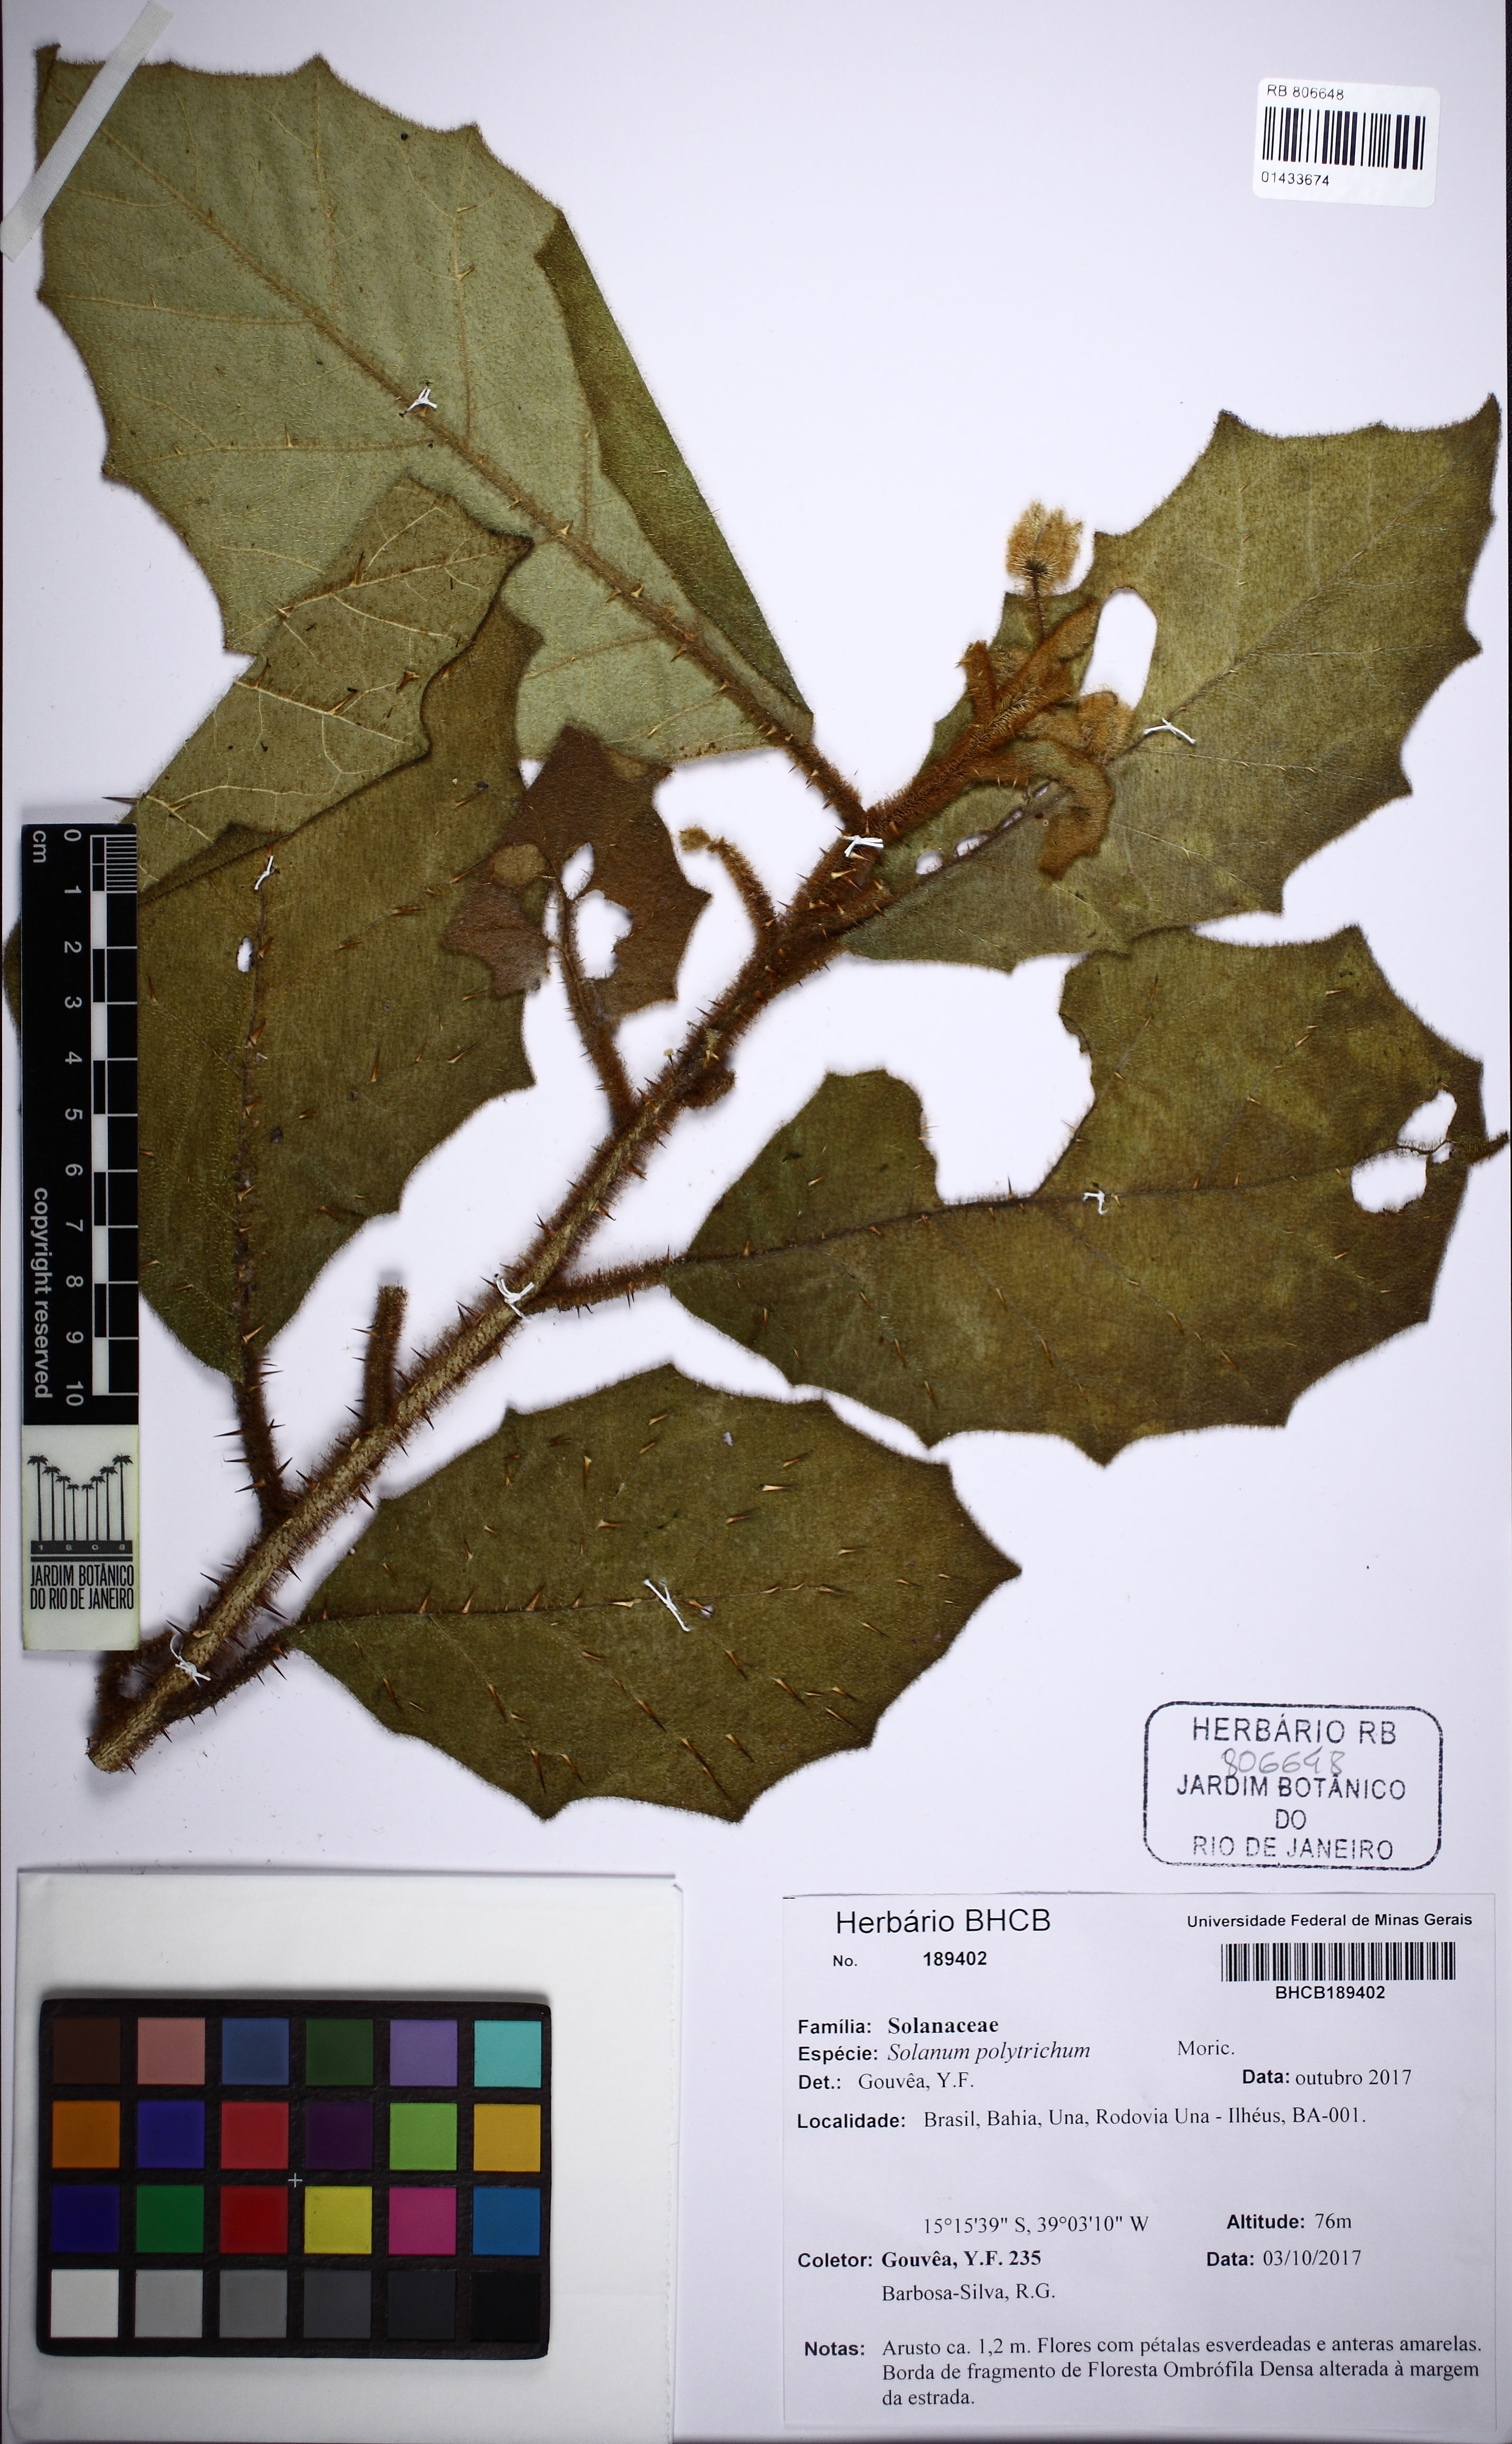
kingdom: Plantae
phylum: Tracheophyta
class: Magnoliopsida
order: Solanales
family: Solanaceae
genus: Solanum
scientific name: Solanum podotrichum
